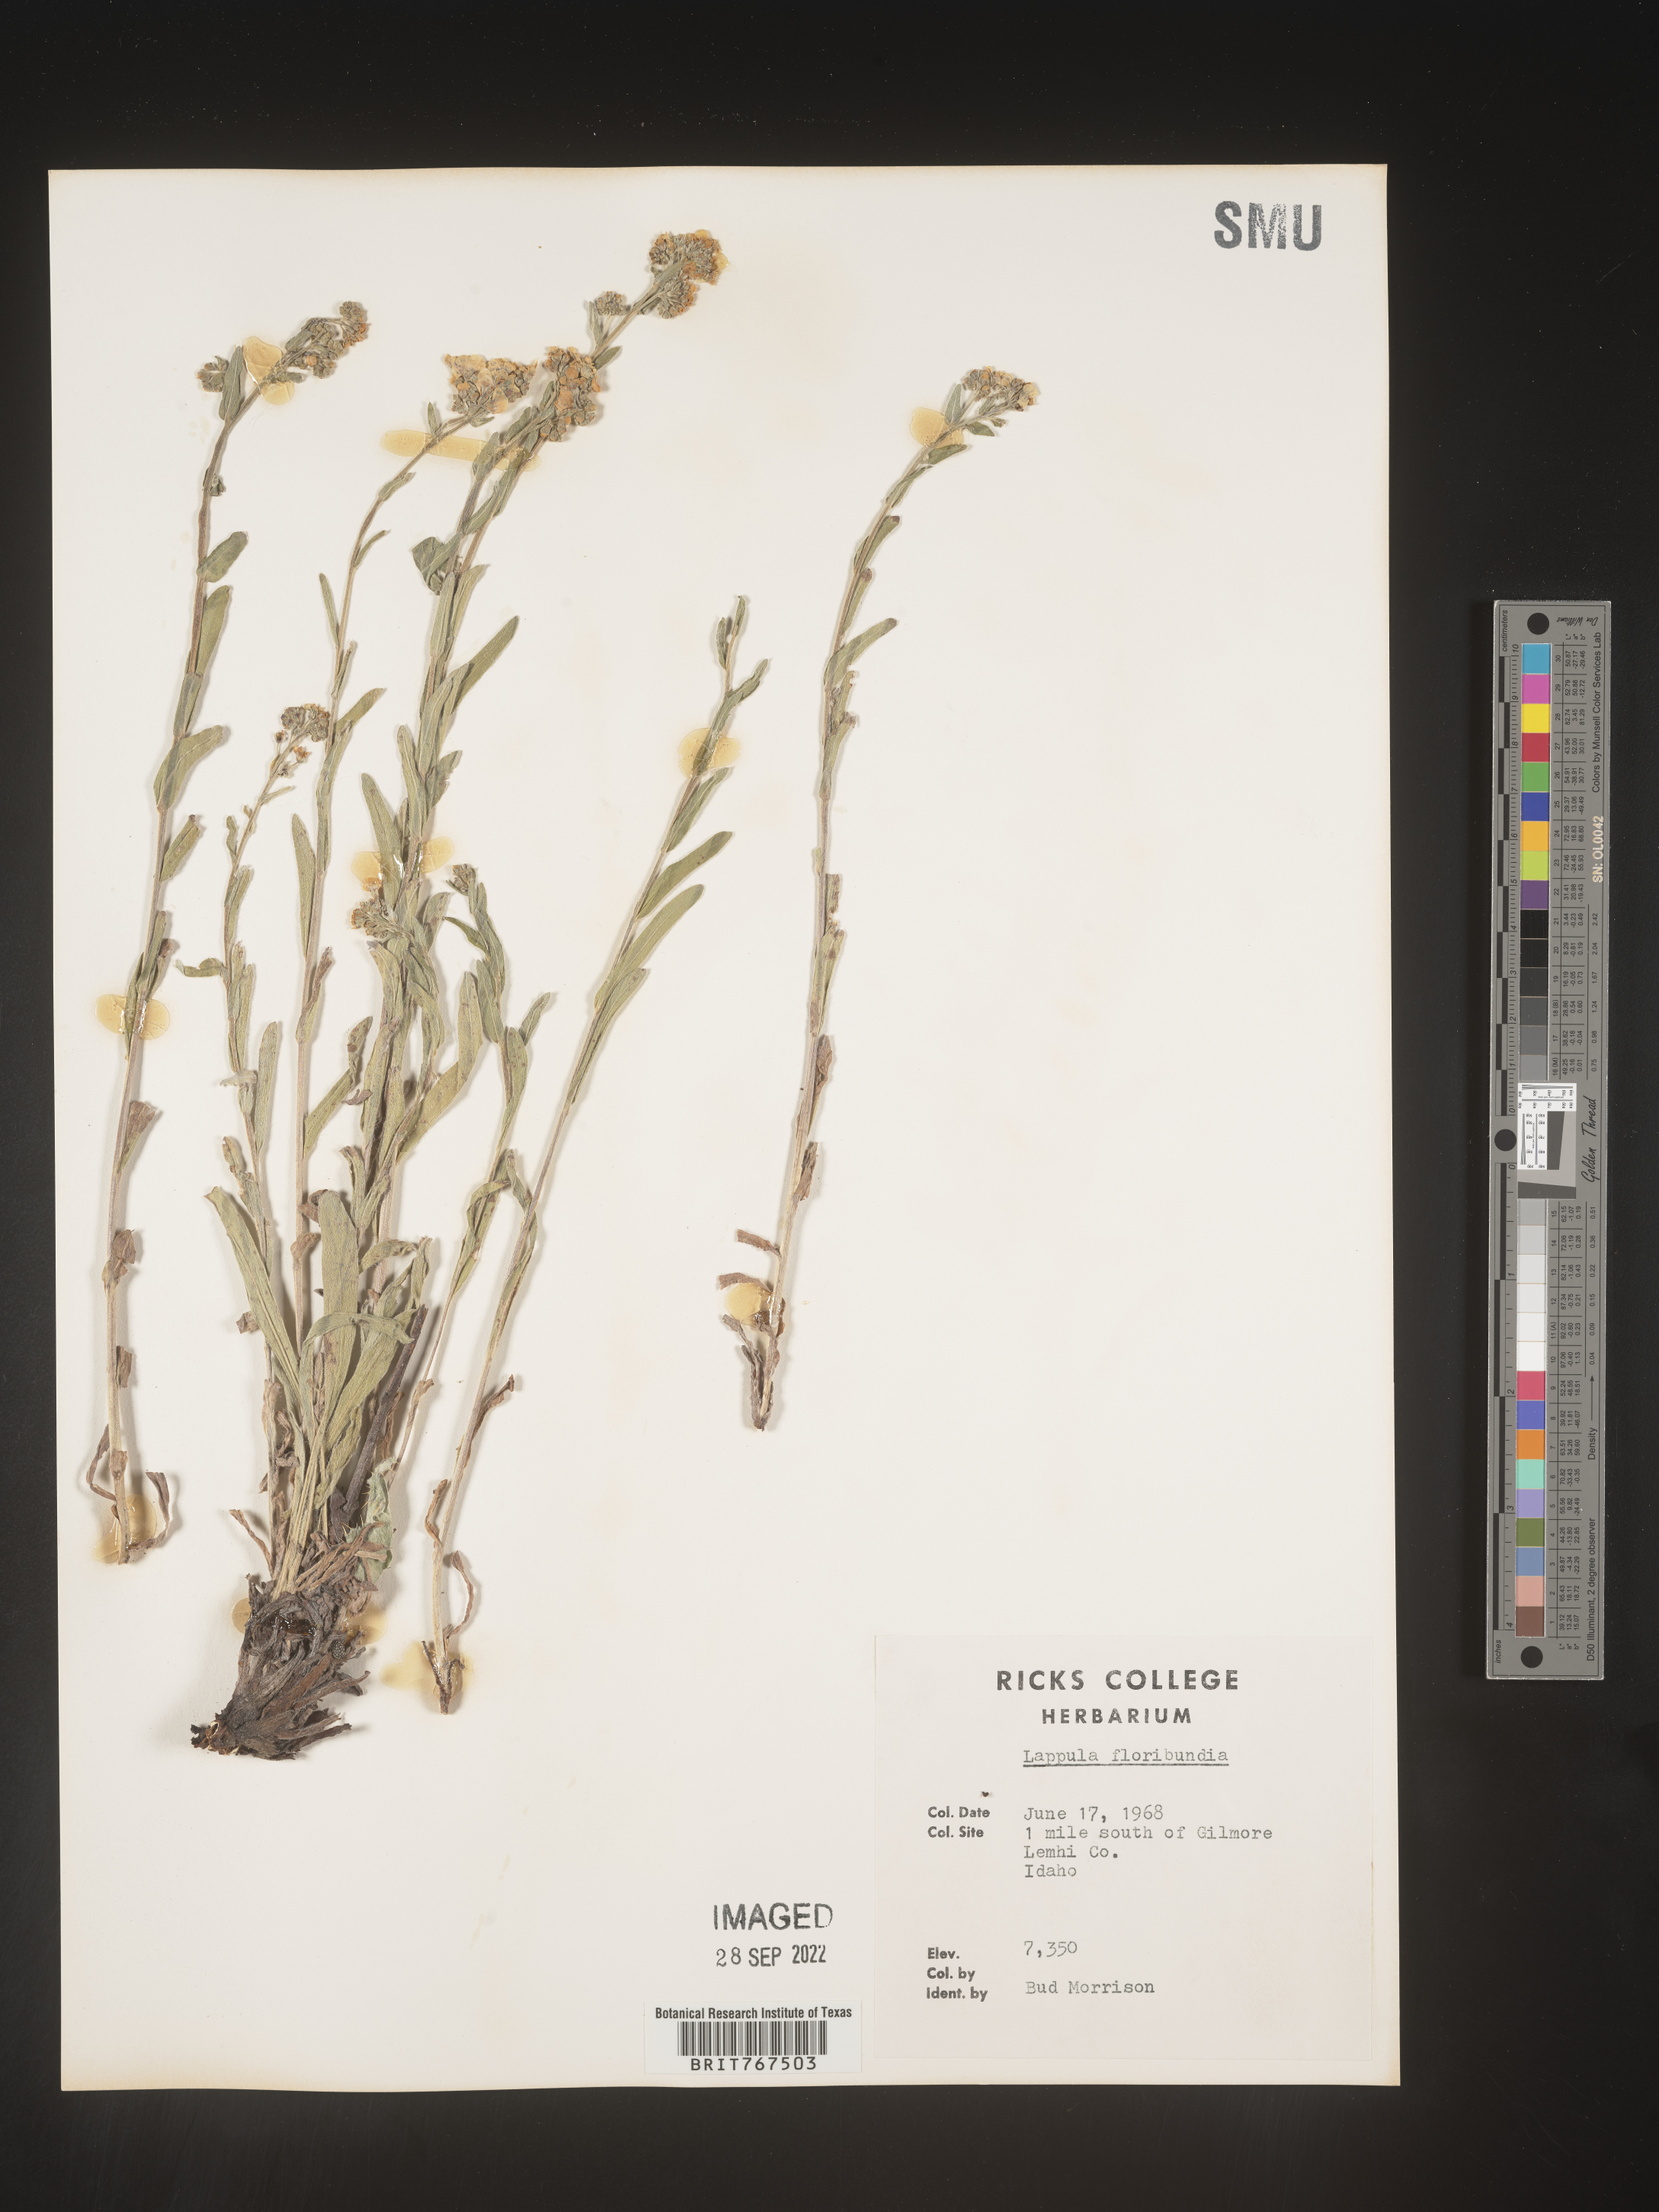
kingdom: Plantae
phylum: Tracheophyta
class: Magnoliopsida
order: Boraginales
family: Boraginaceae
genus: Hackelia
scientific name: Hackelia floribunda
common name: Large-flowered stickseed
